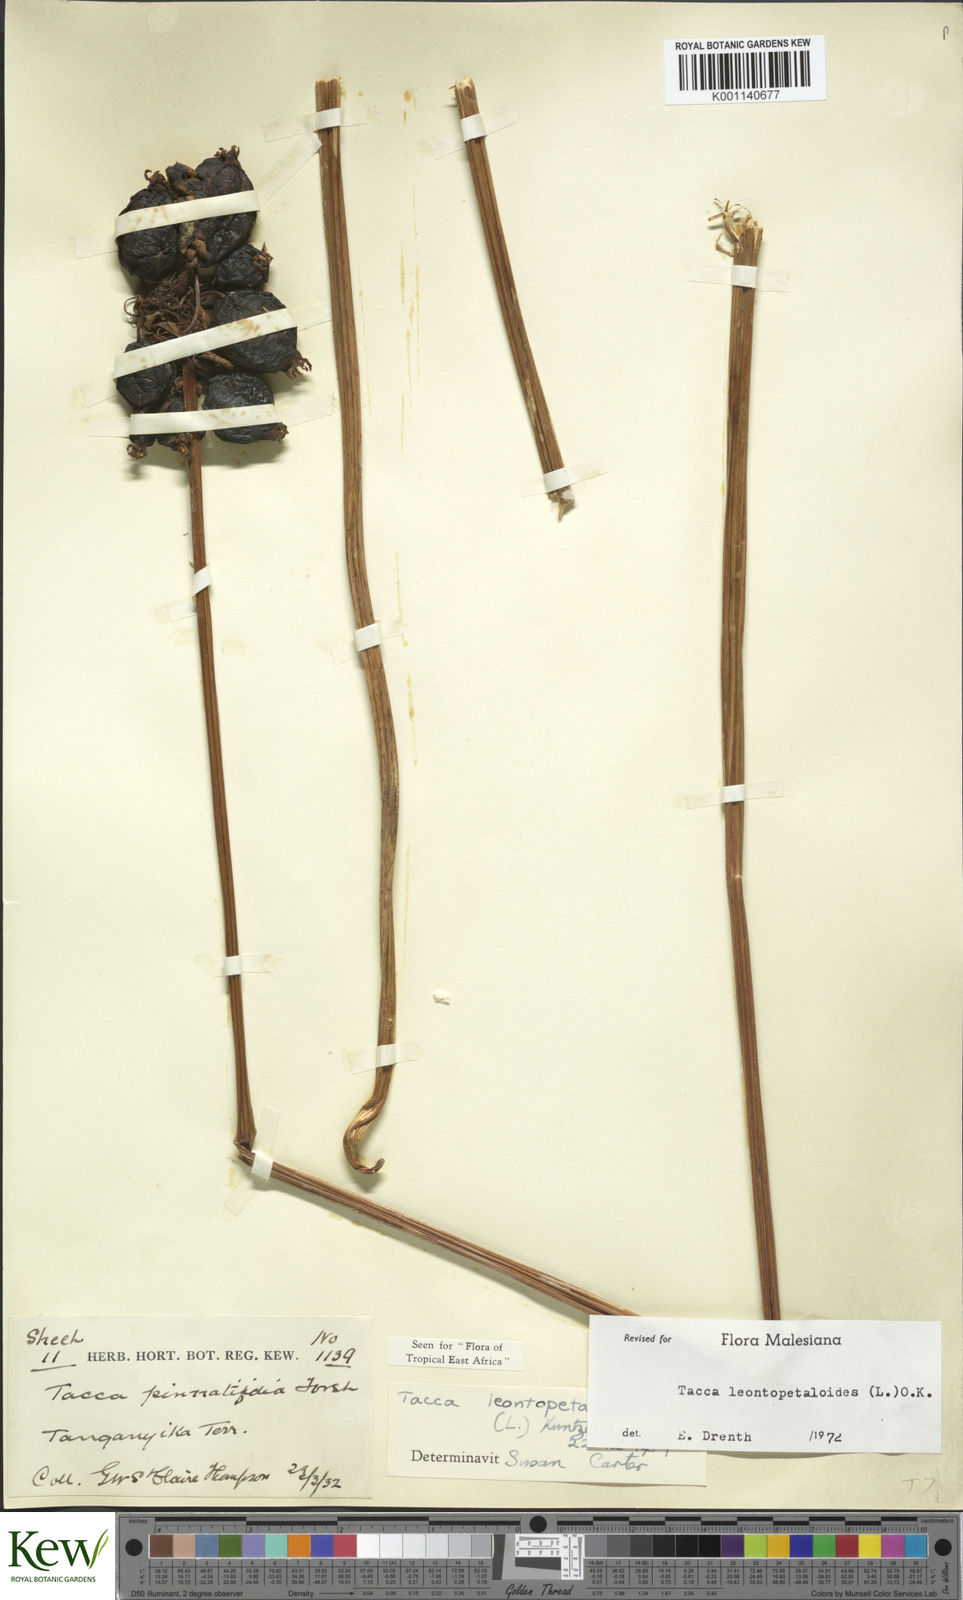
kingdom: Plantae
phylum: Tracheophyta
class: Liliopsida
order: Dioscoreales
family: Dioscoreaceae
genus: Tacca
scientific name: Tacca leontopetaloides
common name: Arrowroot
